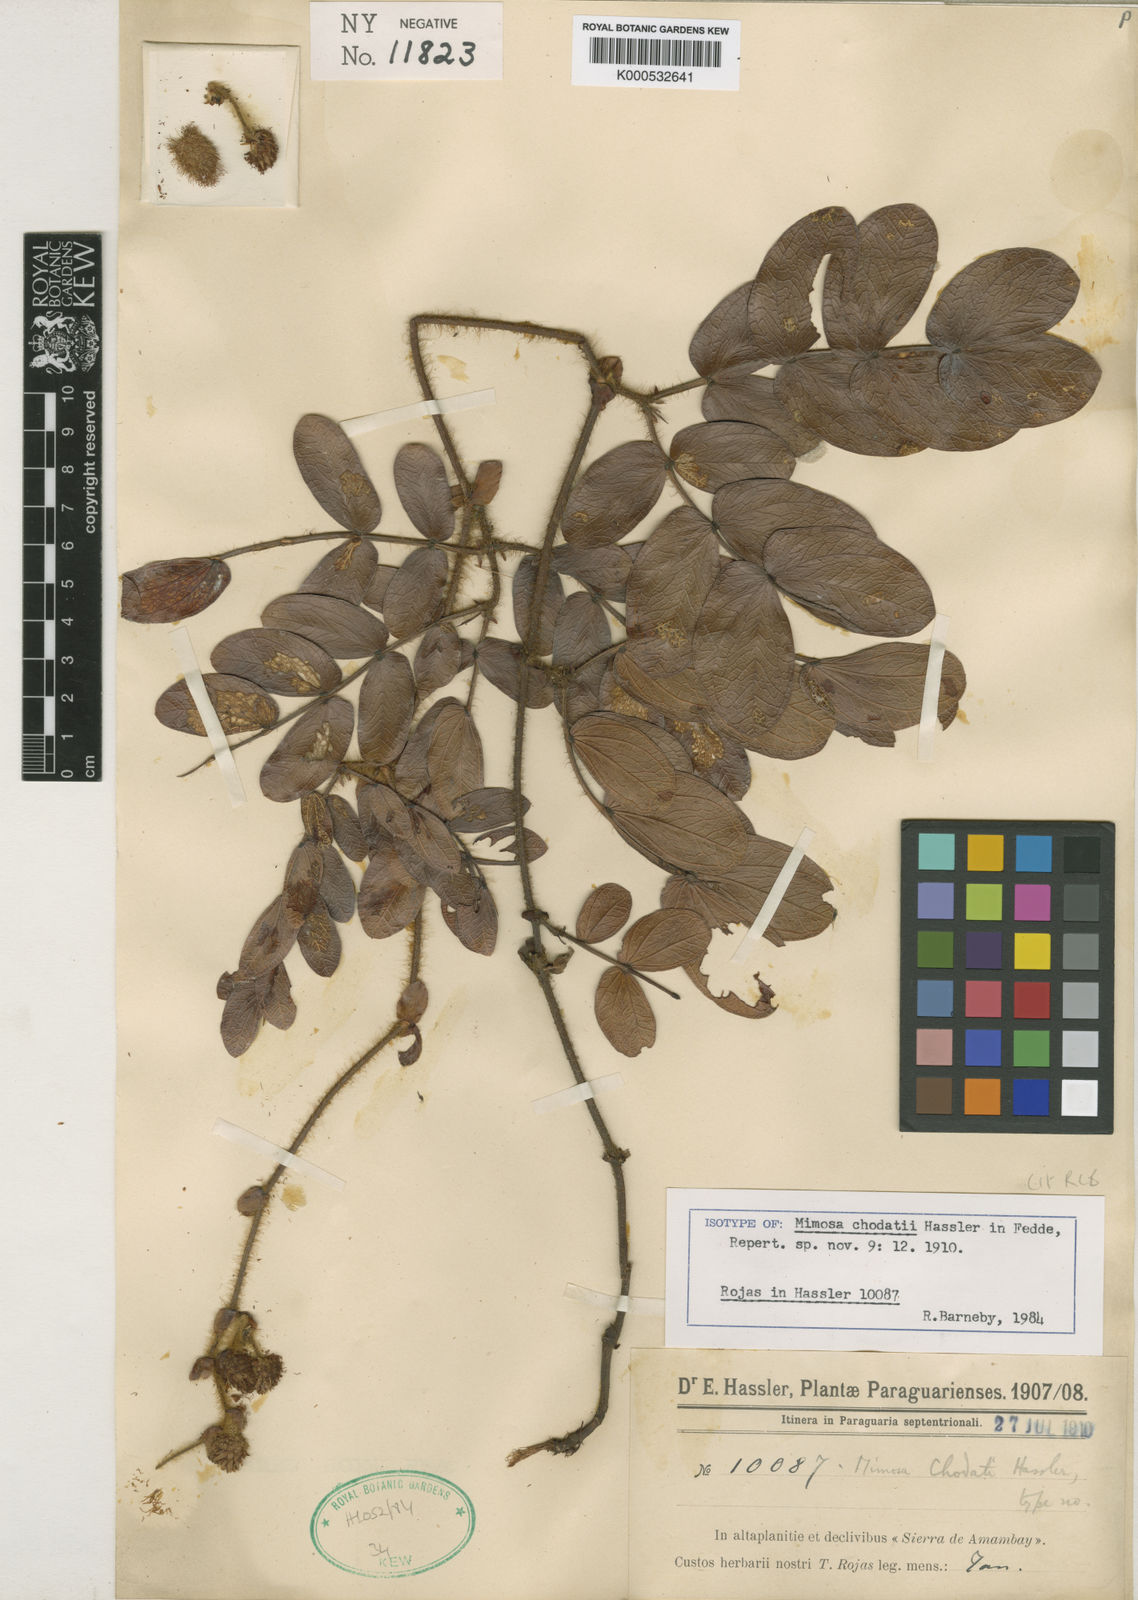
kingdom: Plantae
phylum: Tracheophyta
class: Magnoliopsida
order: Fabales
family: Fabaceae
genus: Mimosa
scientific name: Mimosa chodatii
